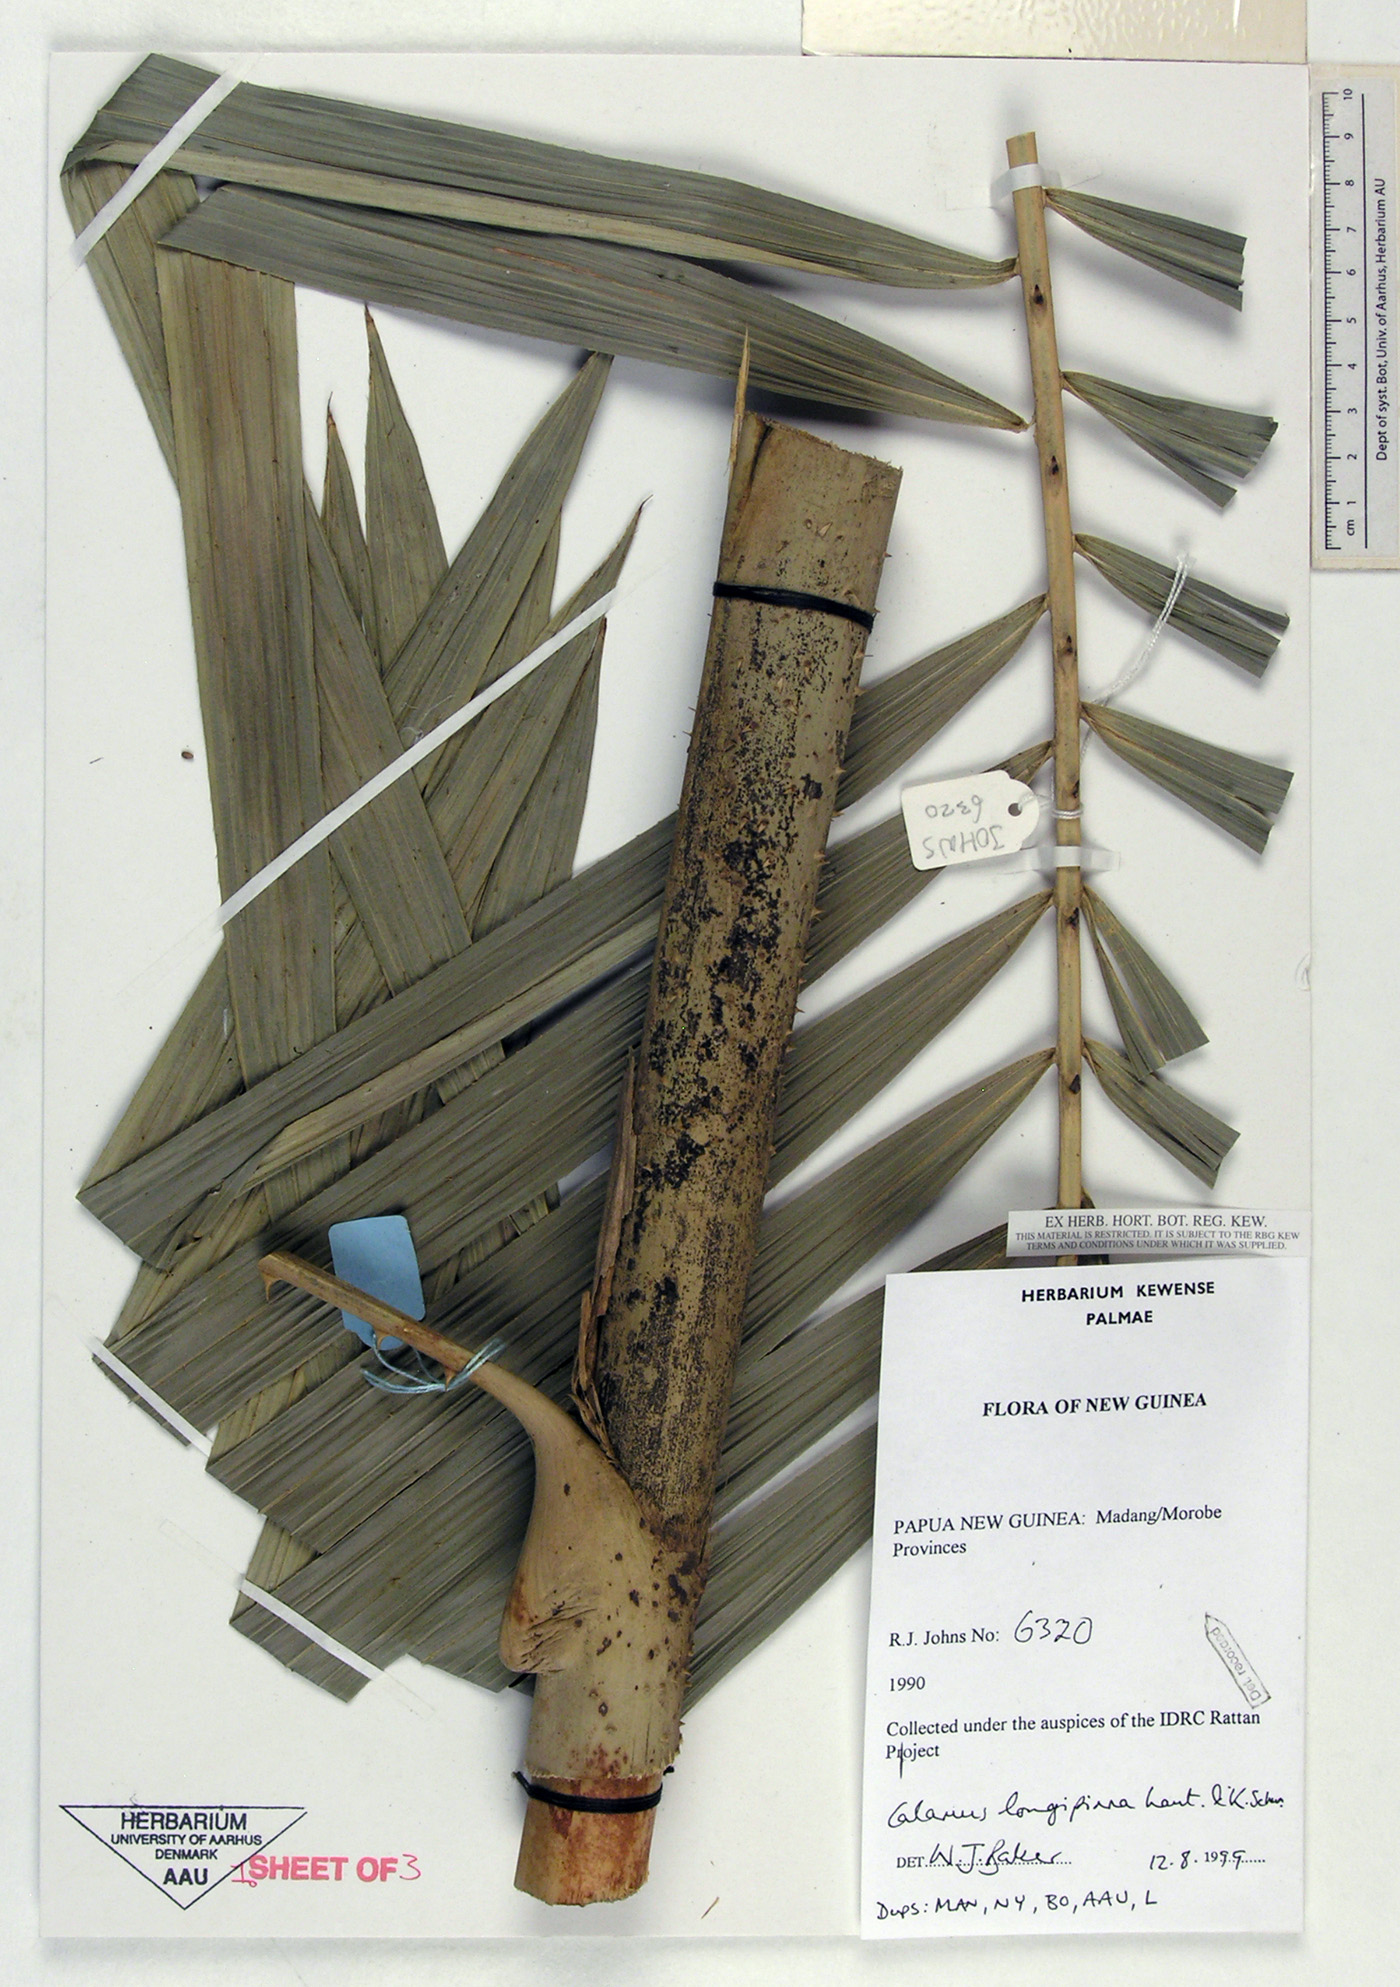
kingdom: Plantae
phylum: Tracheophyta
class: Liliopsida
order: Arecales
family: Arecaceae
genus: Calamus
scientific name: Calamus longipinna
